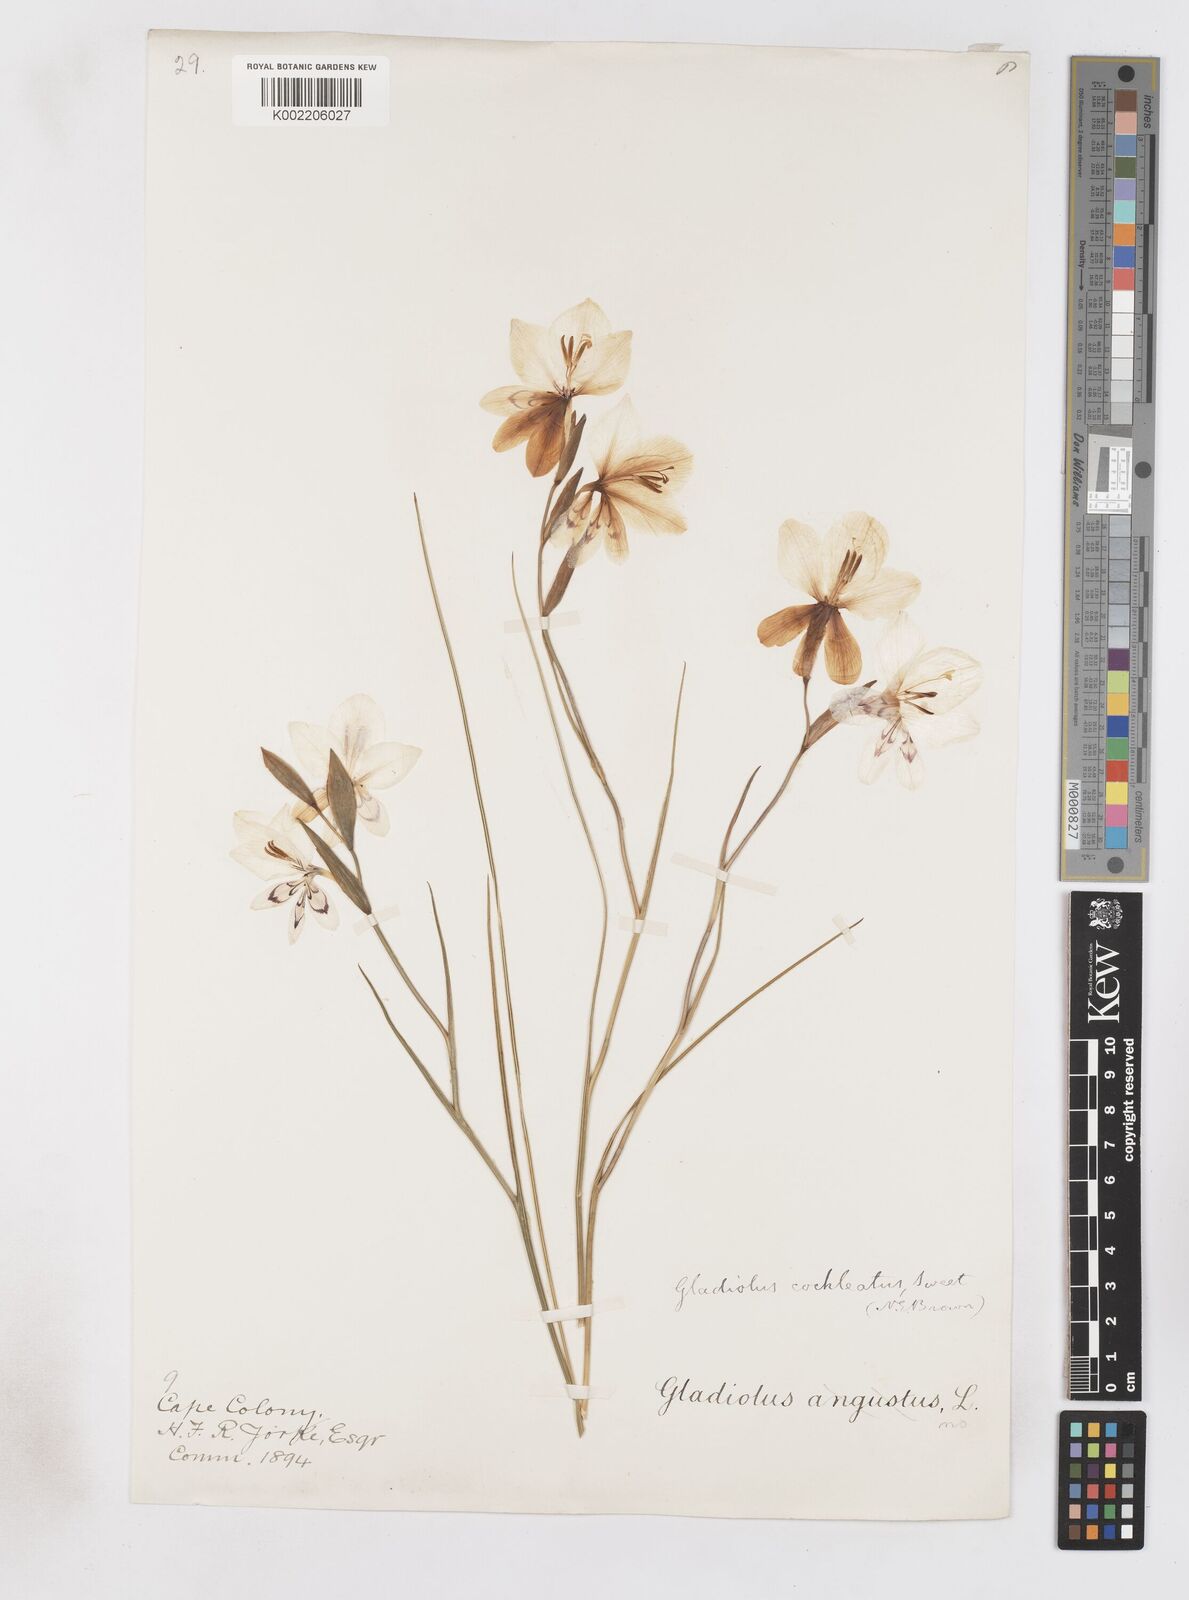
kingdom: Plantae
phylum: Tracheophyta
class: Liliopsida
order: Asparagales
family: Iridaceae
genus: Gladiolus
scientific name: Gladiolus debilis
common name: Painted-lady
